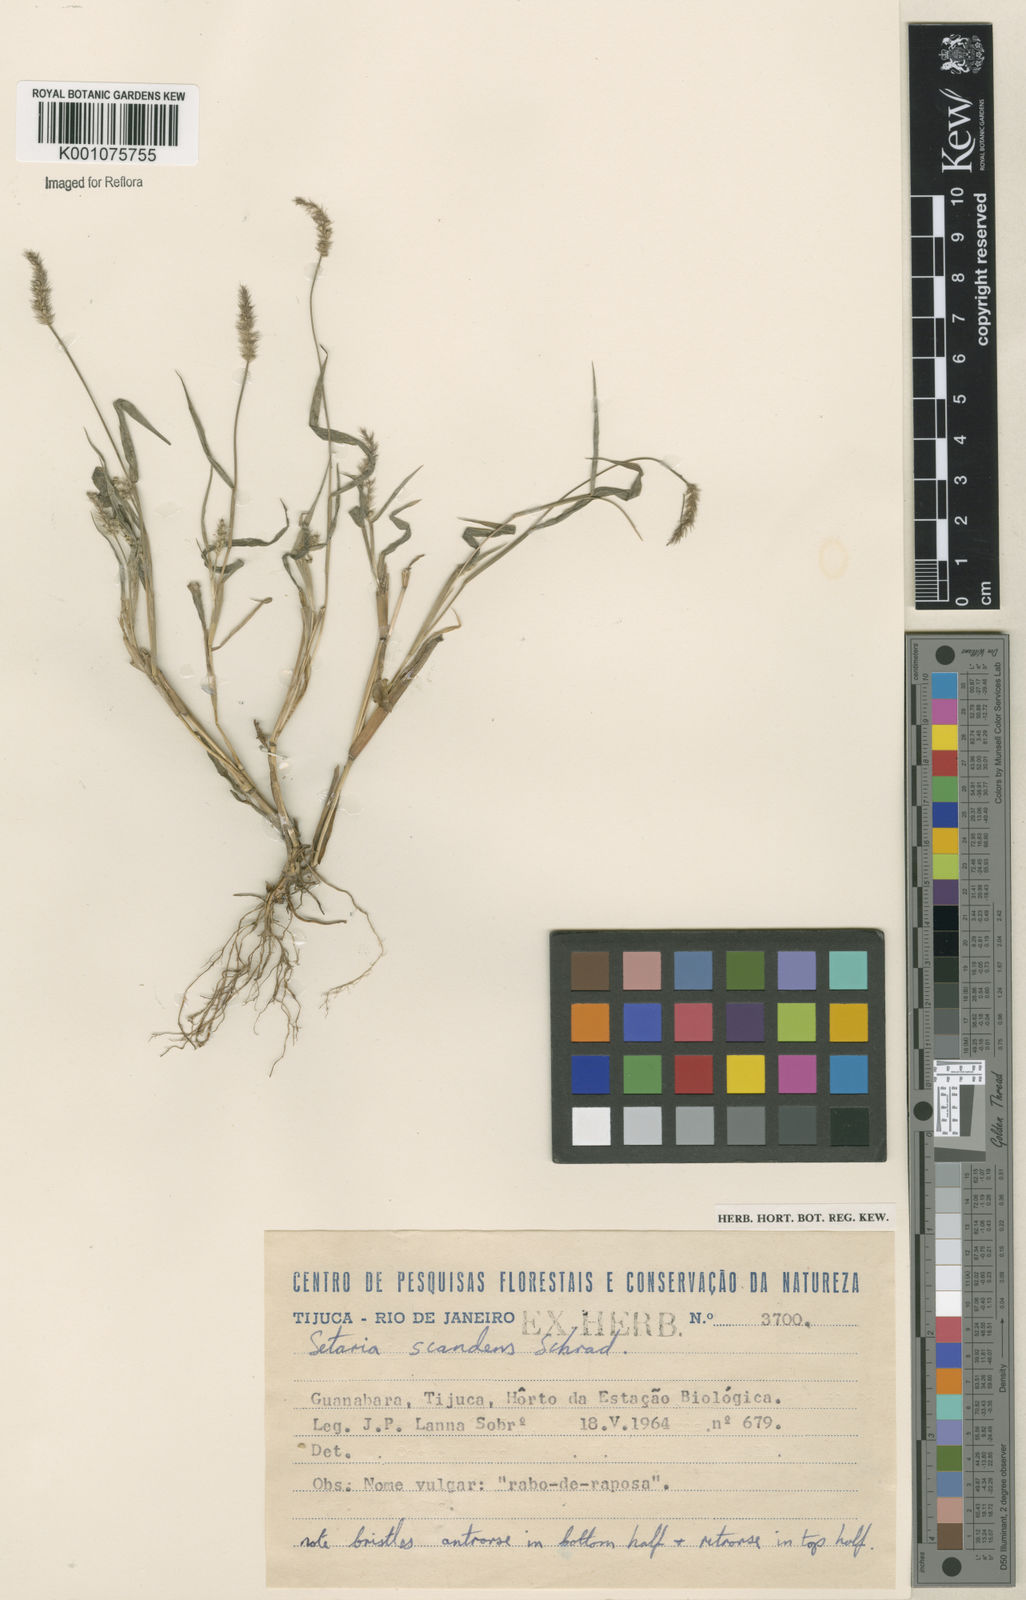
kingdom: Plantae
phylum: Tracheophyta
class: Liliopsida
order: Poales
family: Poaceae
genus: Setaria
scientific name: Setaria scandens
